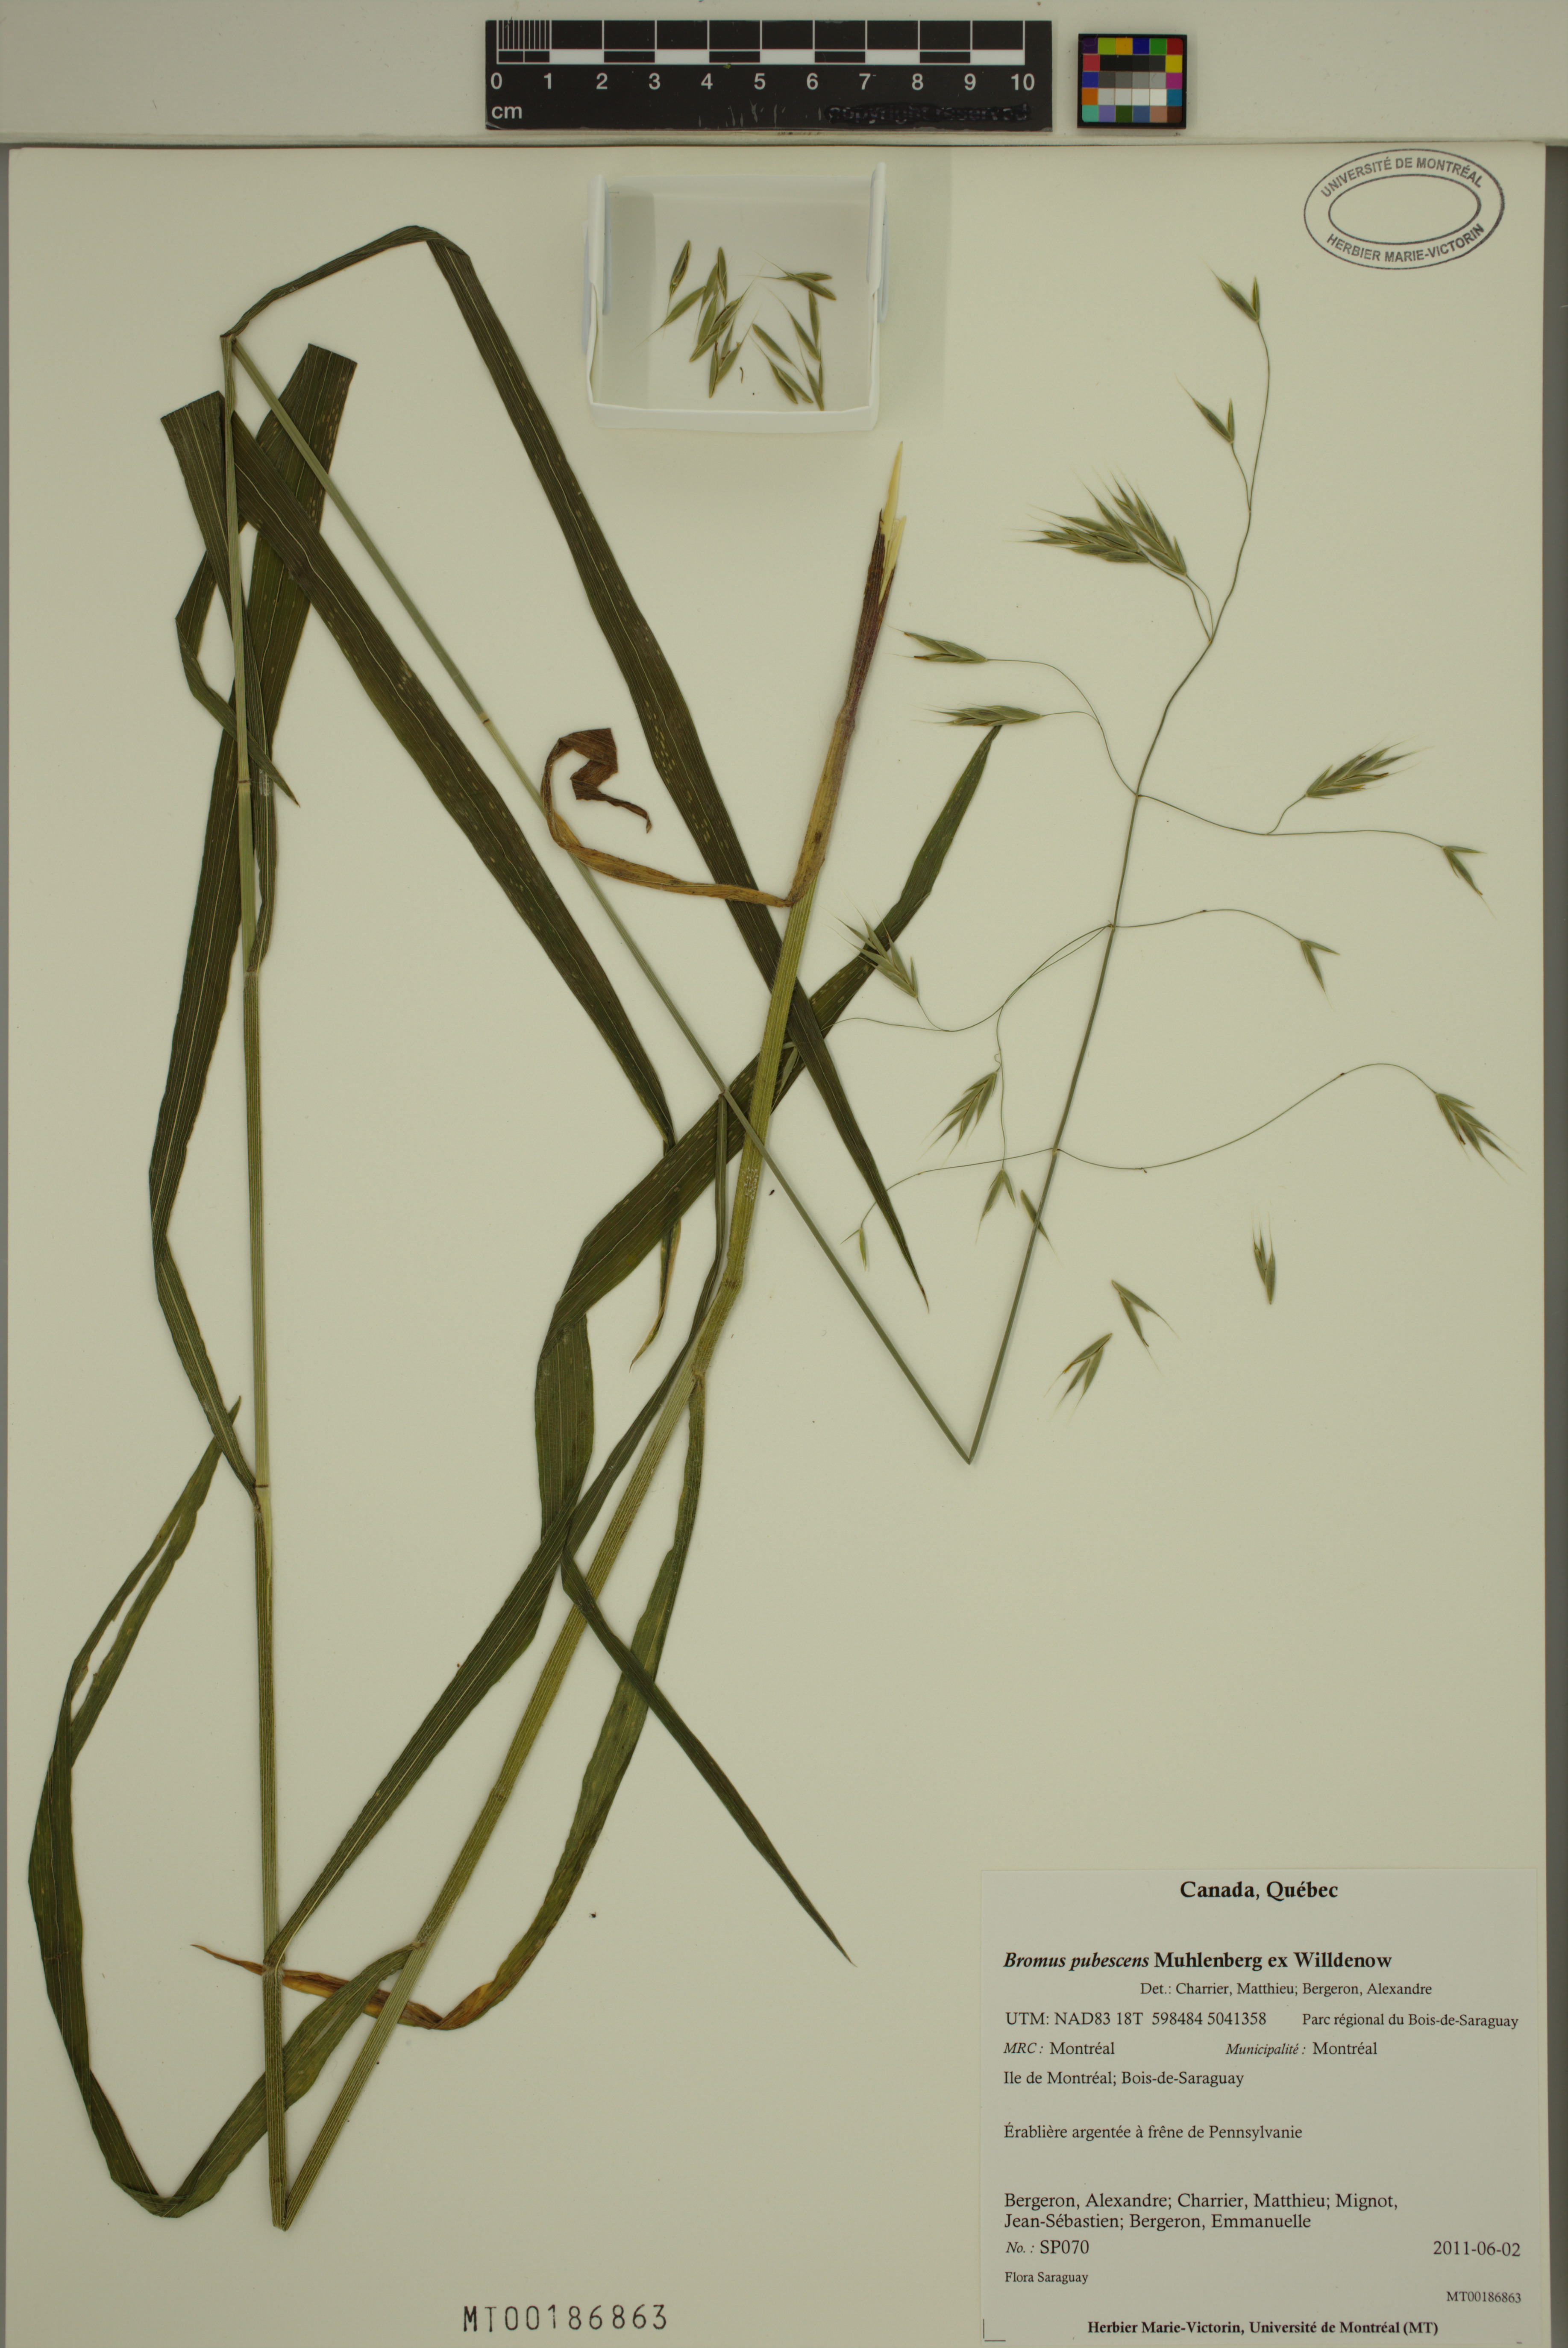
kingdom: Plantae
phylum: Tracheophyta
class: Liliopsida
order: Poales
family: Poaceae
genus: Bromus
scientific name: Bromus pubescens
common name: Hairy wood brome grass
